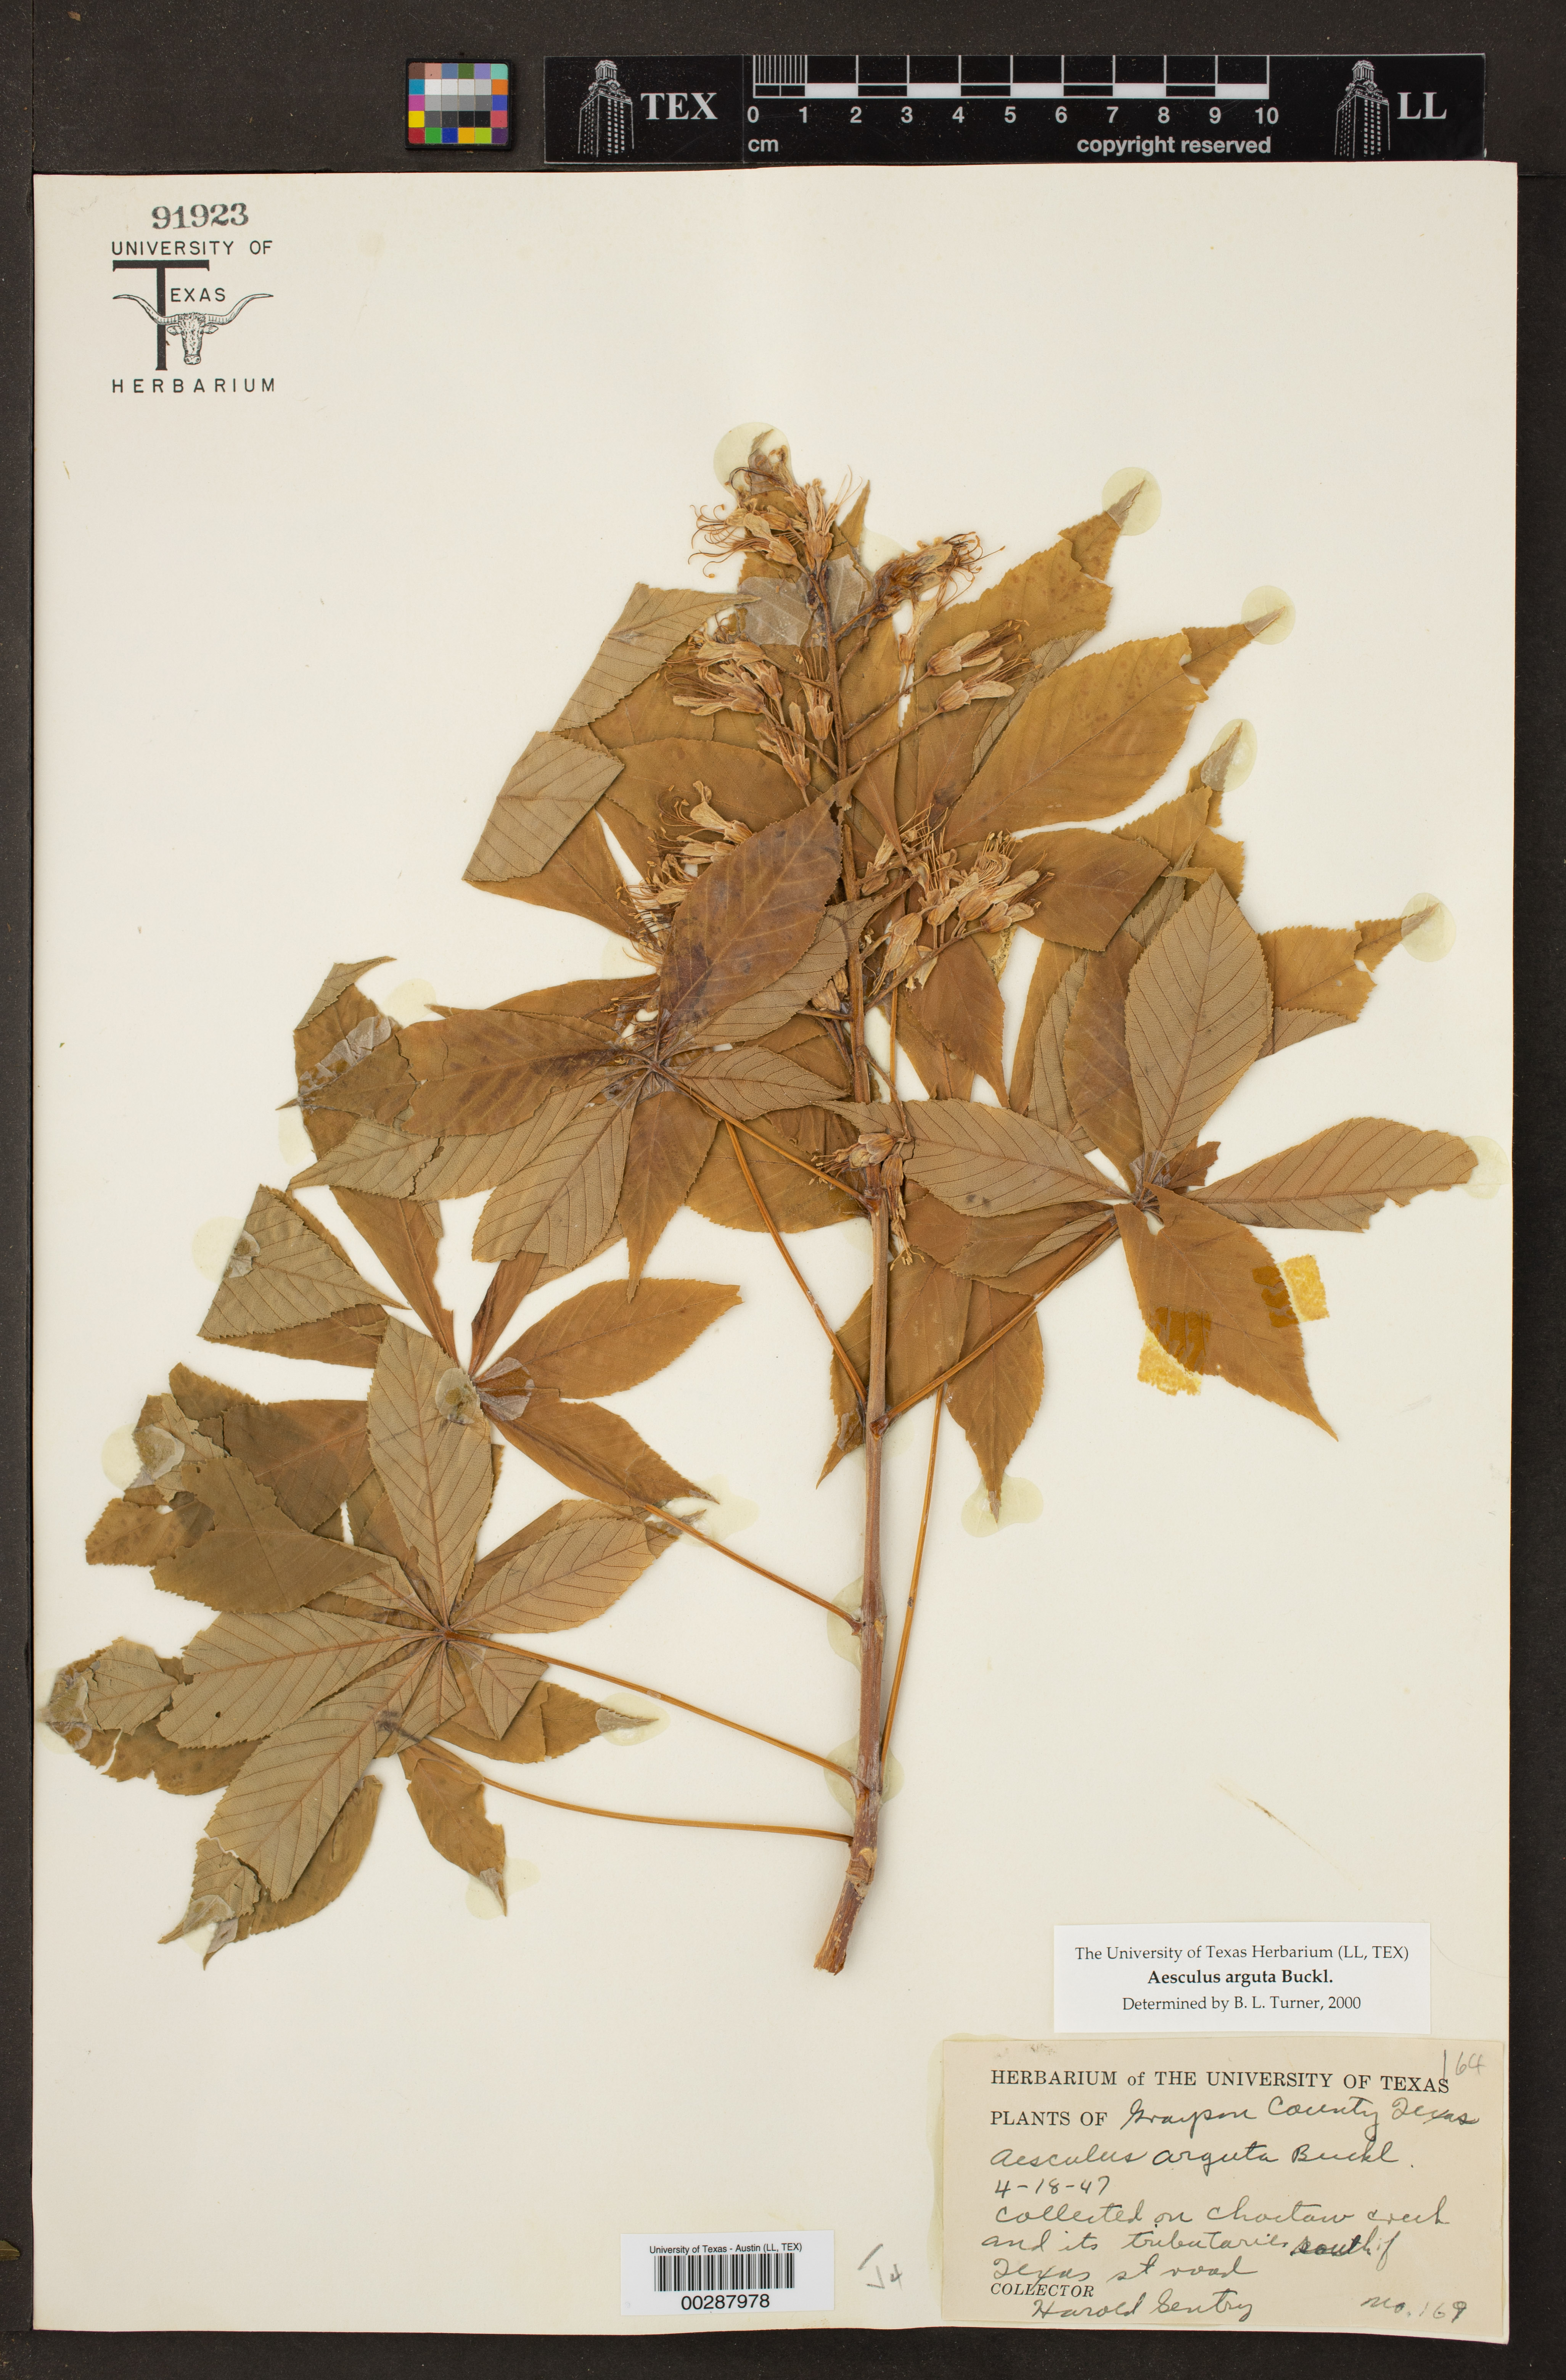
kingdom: Plantae
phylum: Tracheophyta
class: Magnoliopsida
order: Sapindales
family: Sapindaceae
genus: Aesculus
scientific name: Aesculus glabra
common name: Ohio buckeye
